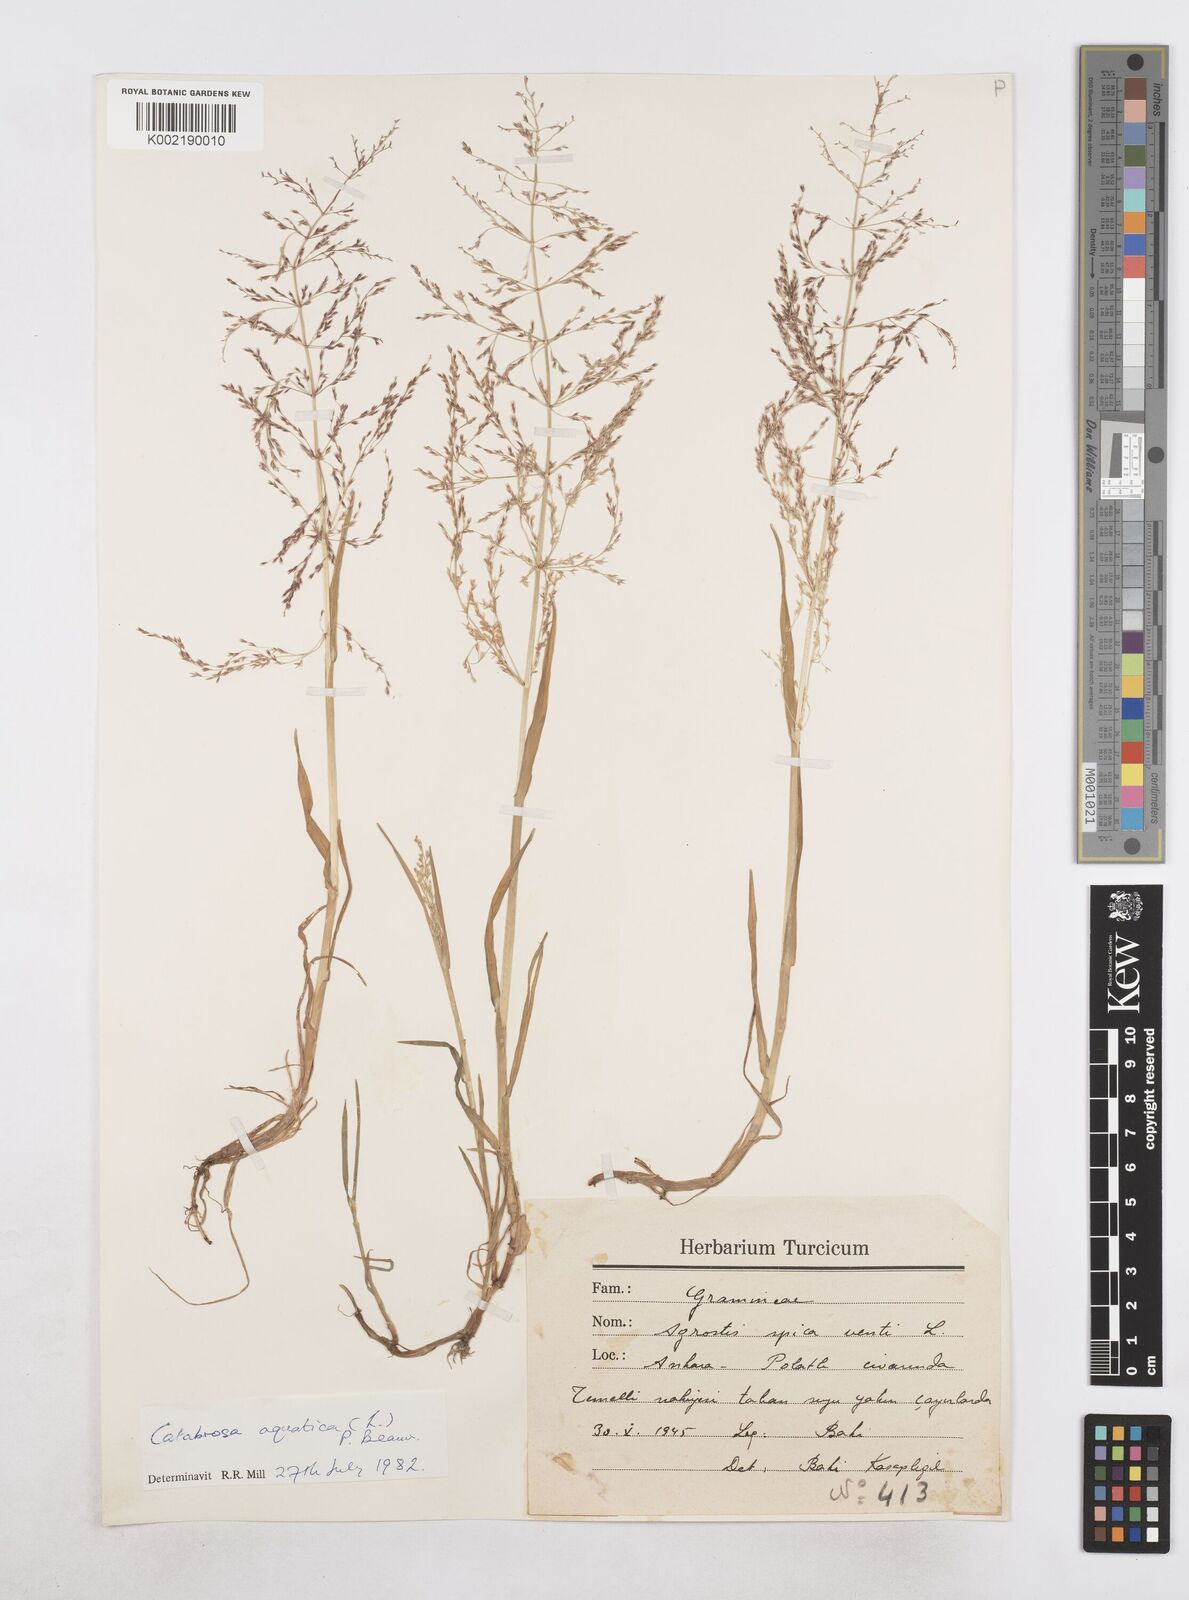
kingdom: Plantae
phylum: Tracheophyta
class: Liliopsida
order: Poales
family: Poaceae
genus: Catabrosa
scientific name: Catabrosa aquatica
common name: Whorl-grass
